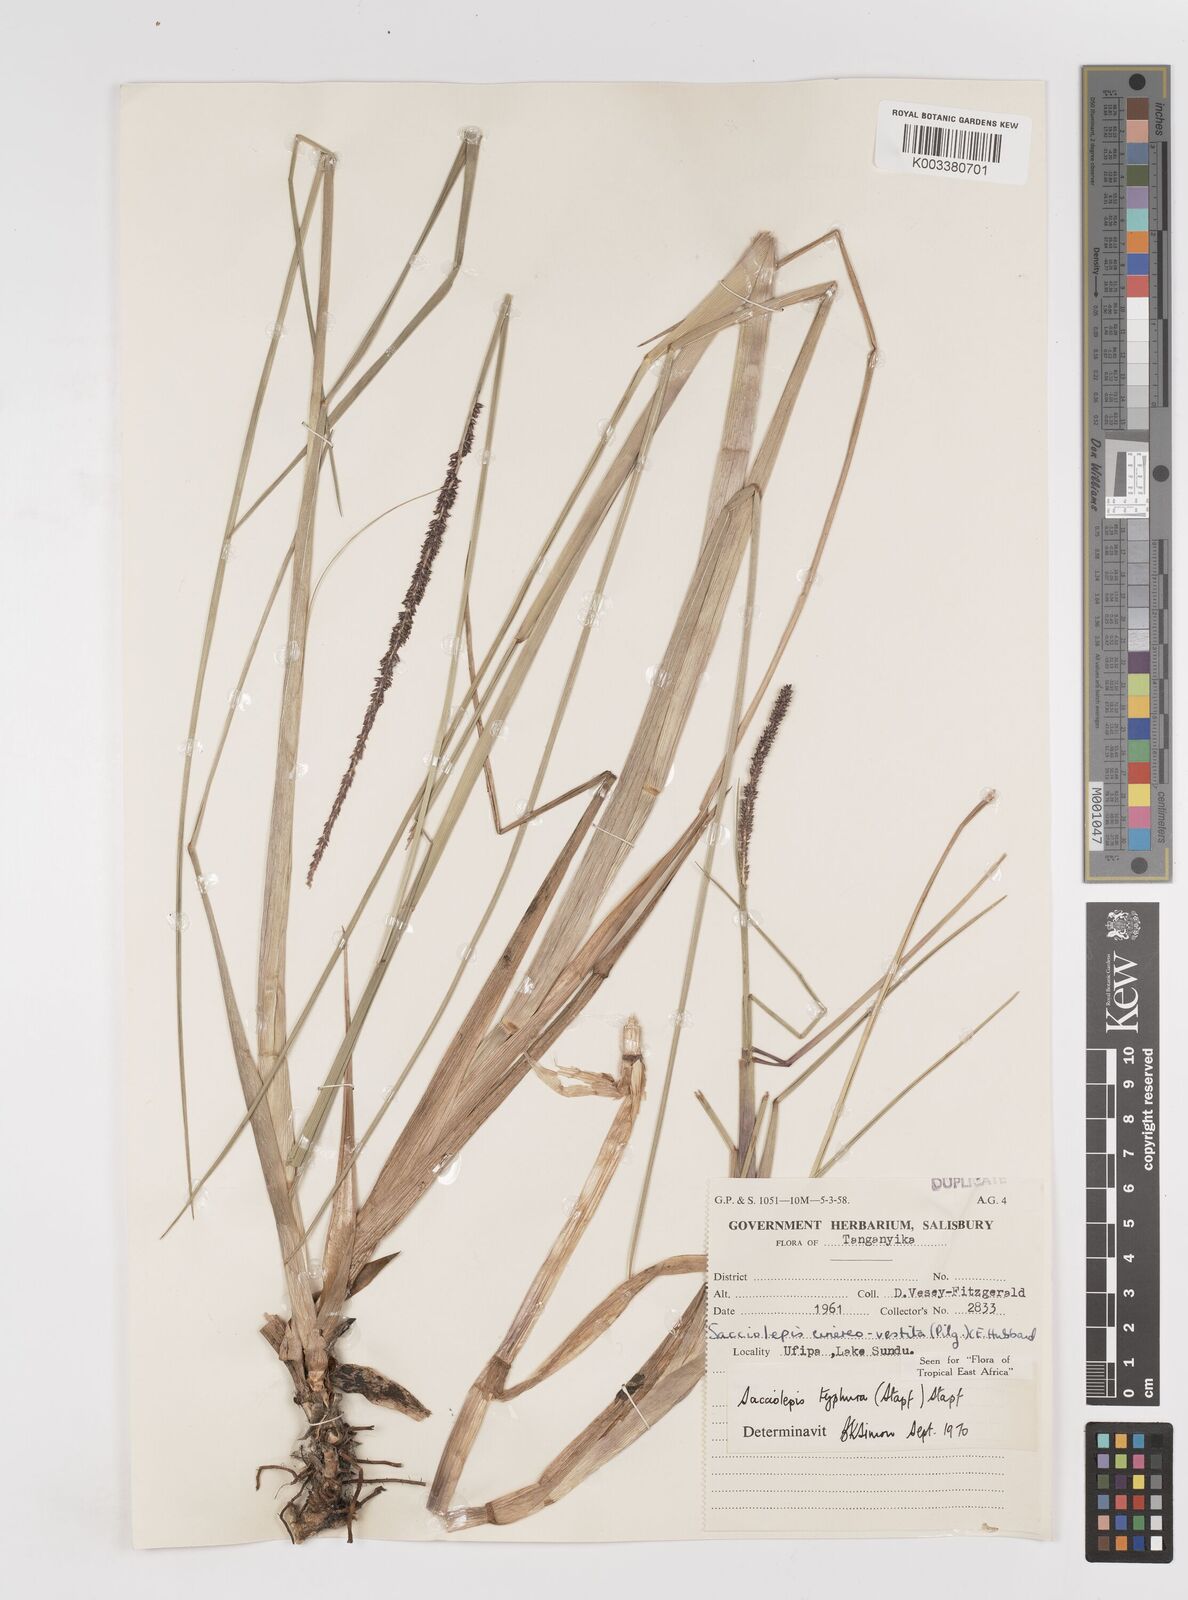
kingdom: Plantae
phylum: Tracheophyta
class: Liliopsida
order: Poales
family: Poaceae
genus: Sacciolepis
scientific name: Sacciolepis typhura
